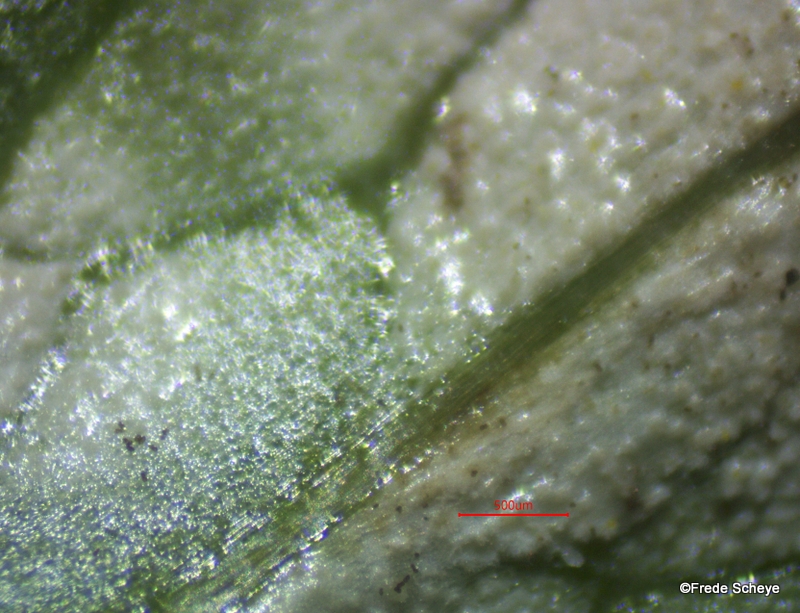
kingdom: Fungi
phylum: Basidiomycota
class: Exobasidiomycetes
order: Entylomatales
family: Entylomataceae
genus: Entyloma
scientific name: Entyloma ficariae
